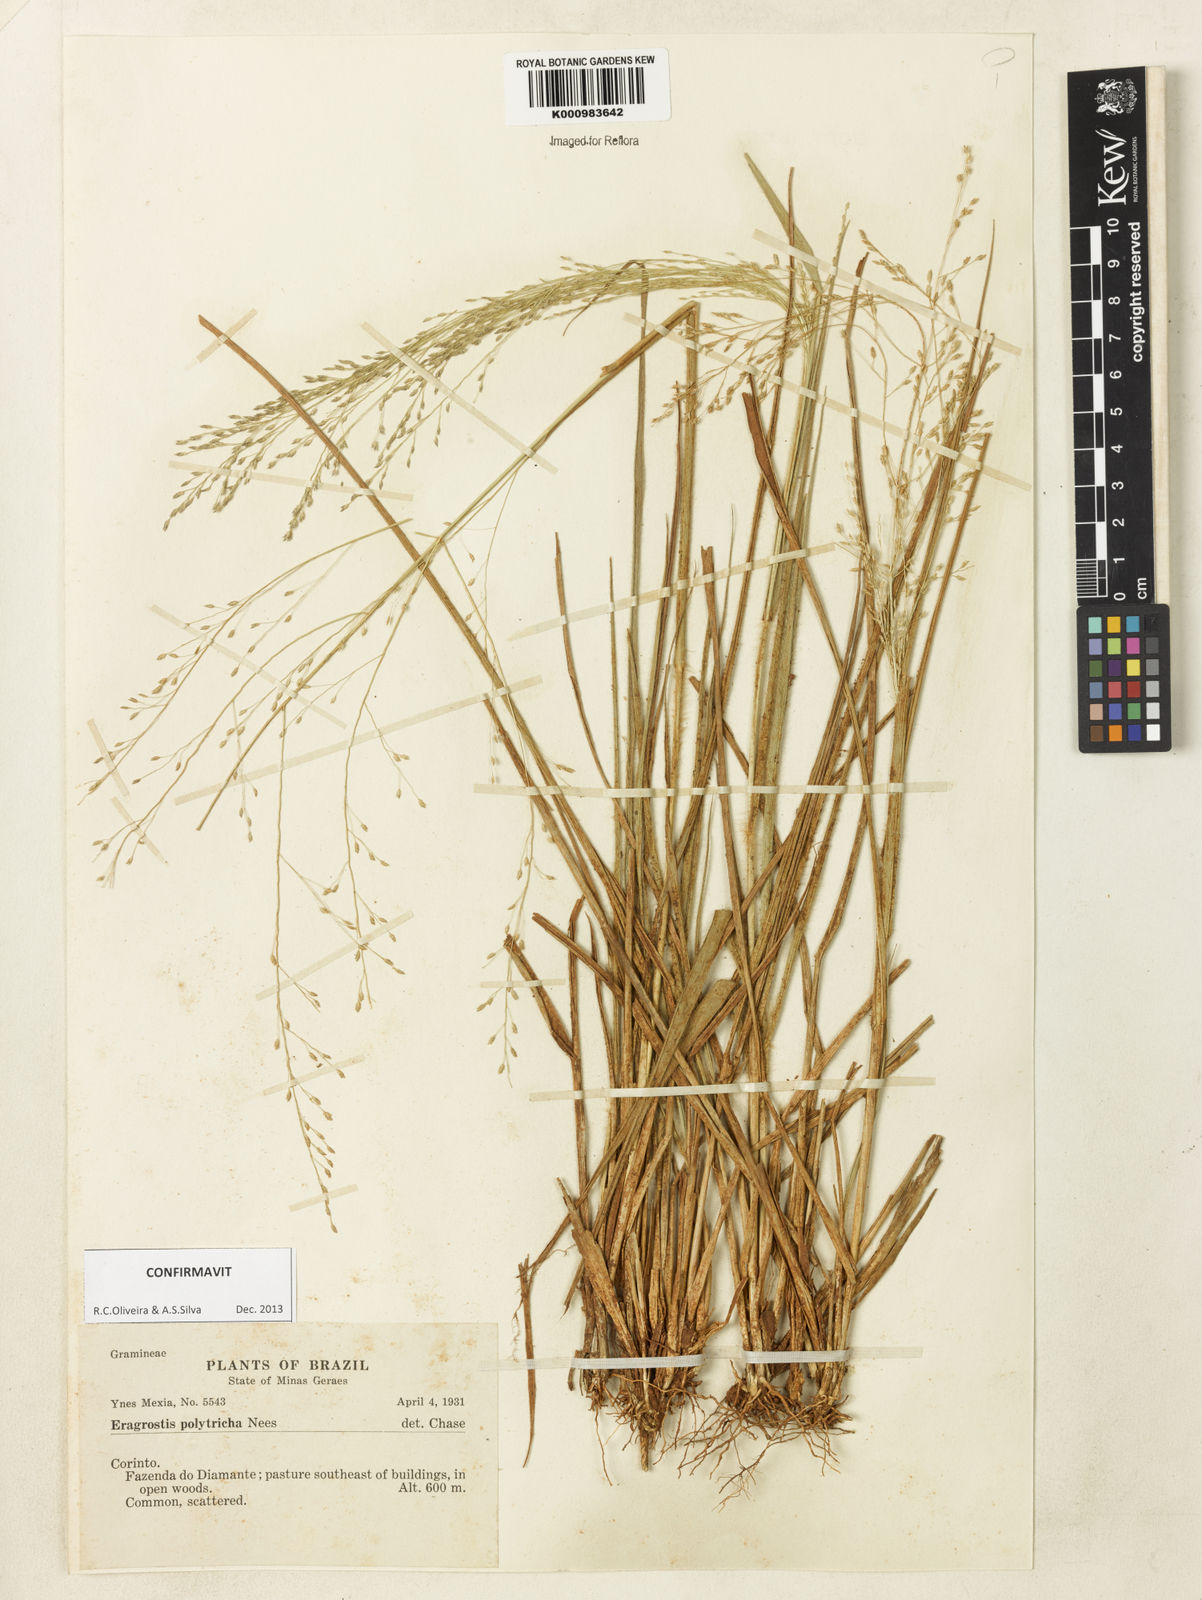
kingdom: Plantae
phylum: Tracheophyta
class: Liliopsida
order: Poales
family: Poaceae
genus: Eragrostis
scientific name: Eragrostis polytricha
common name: Hairy-sheath love grass
